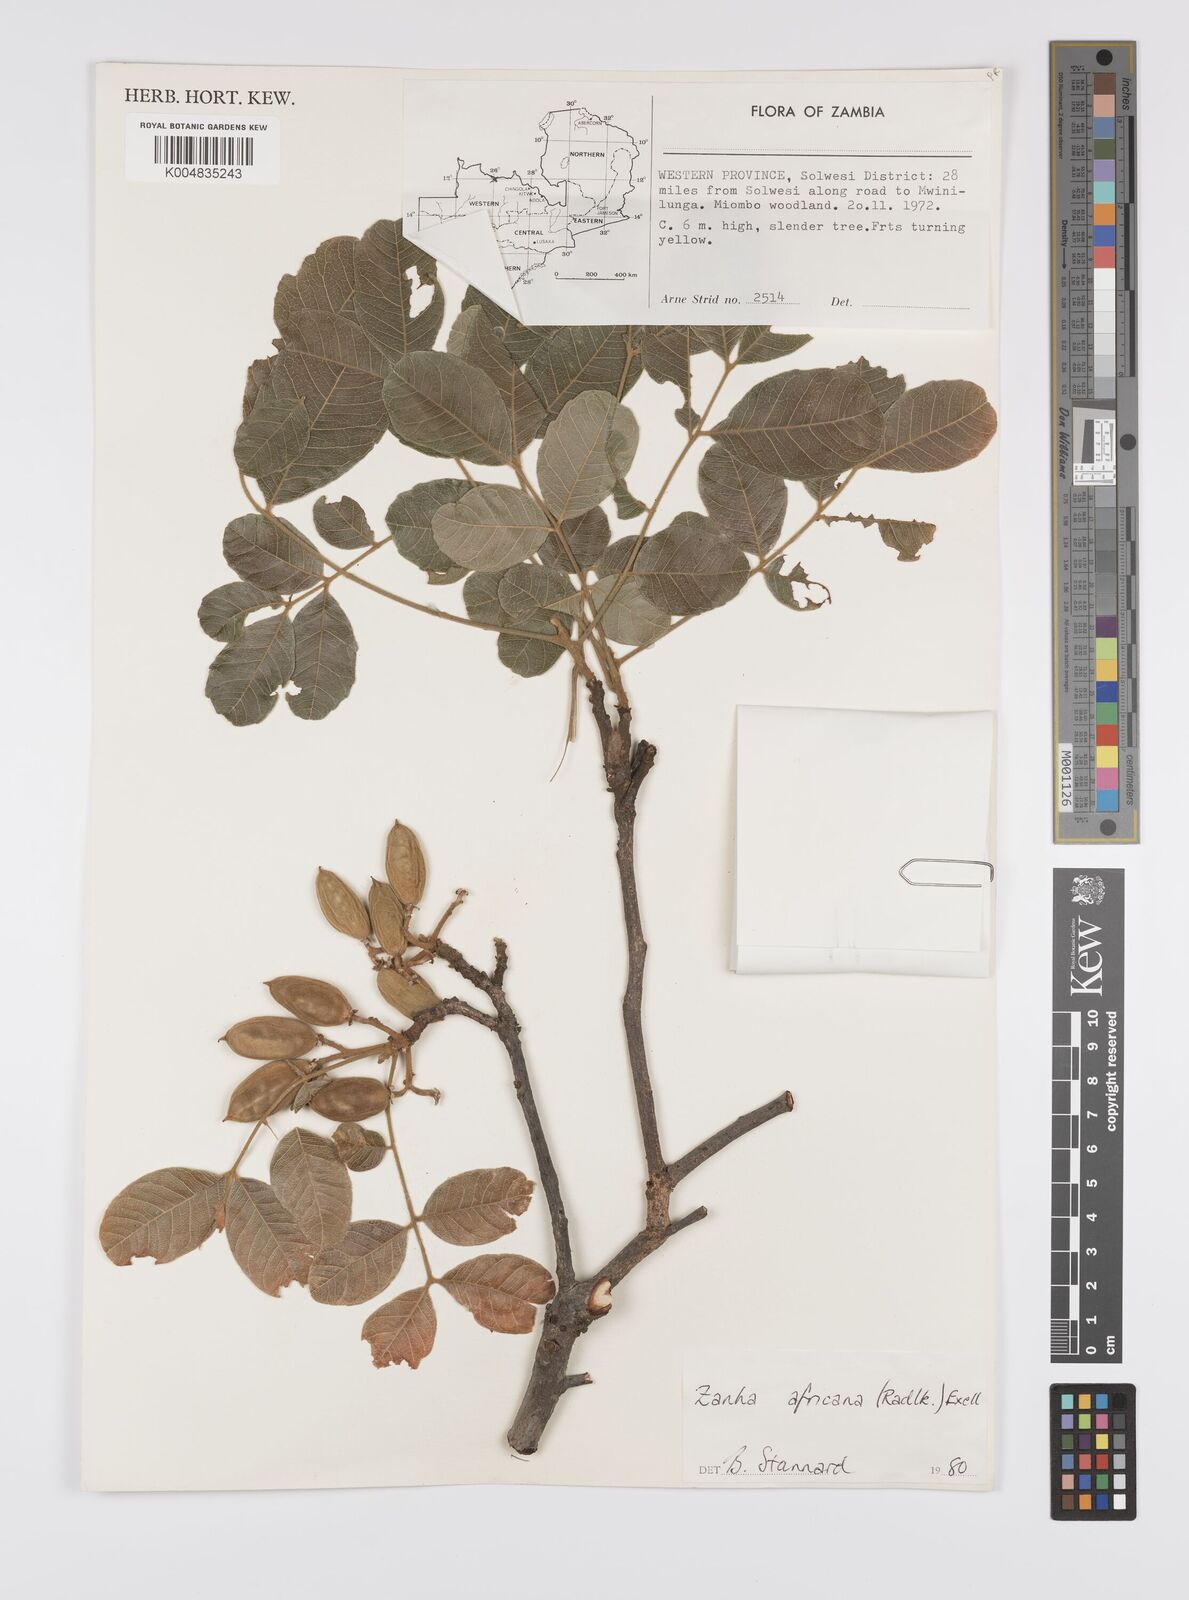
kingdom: Plantae
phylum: Tracheophyta
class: Magnoliopsida
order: Sapindales
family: Sapindaceae
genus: Zanha
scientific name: Zanha africana
